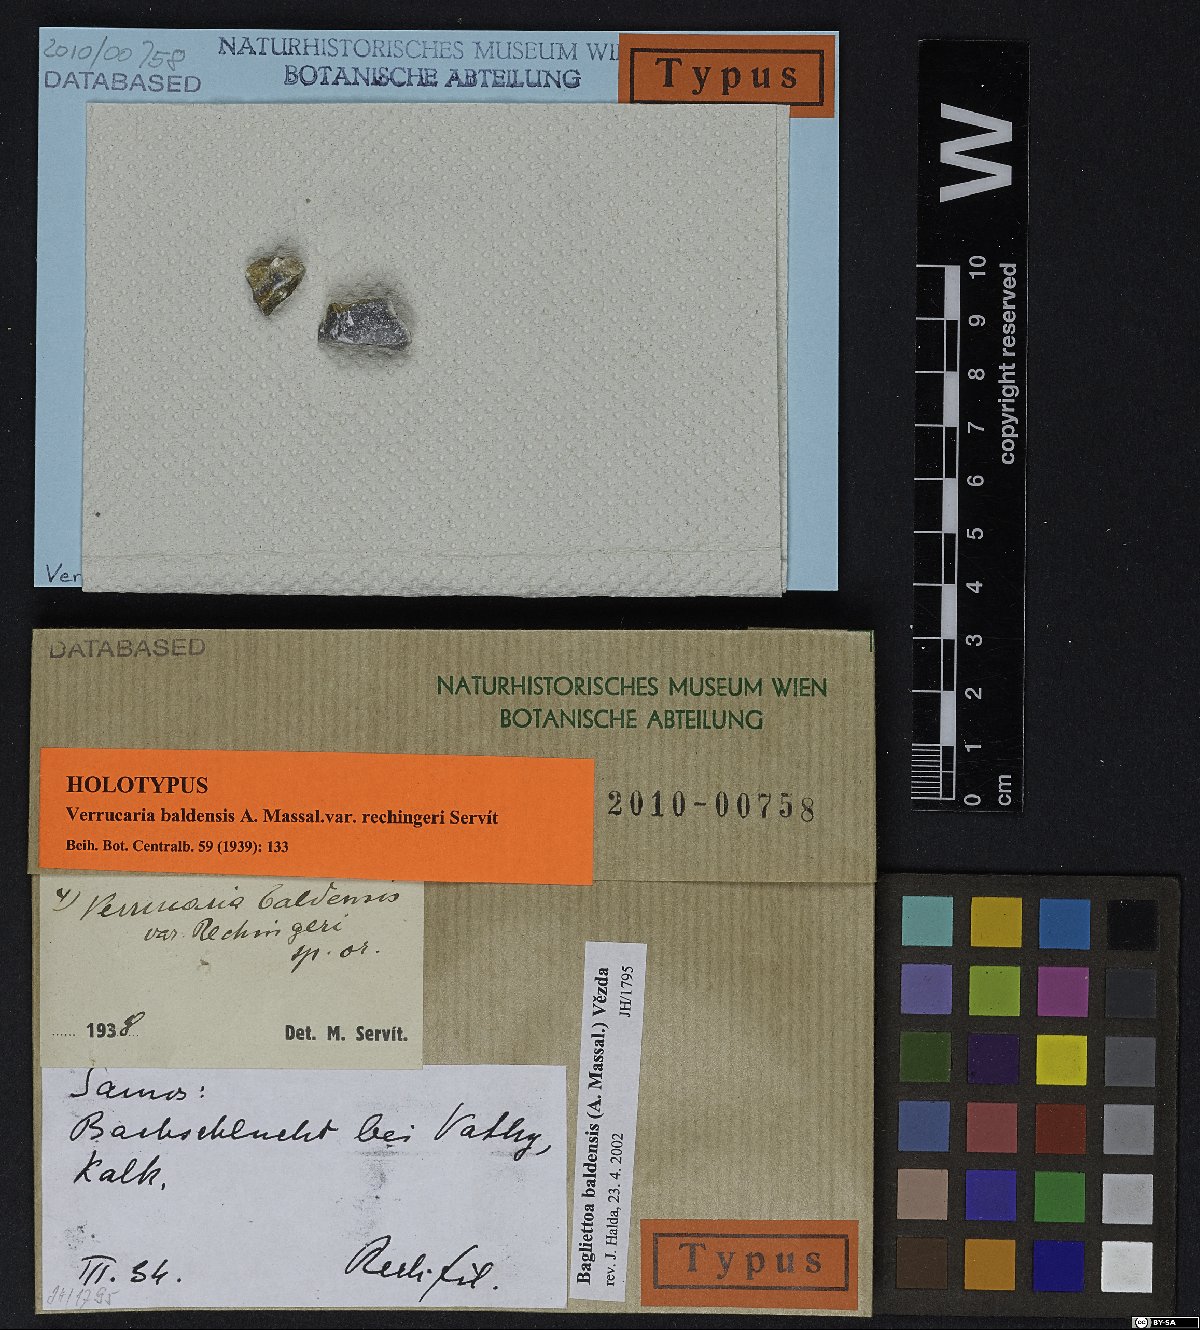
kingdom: Fungi
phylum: Ascomycota
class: Eurotiomycetes
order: Verrucariales
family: Verrucariaceae
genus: Bagliettoa
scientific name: Bagliettoa baldensis
